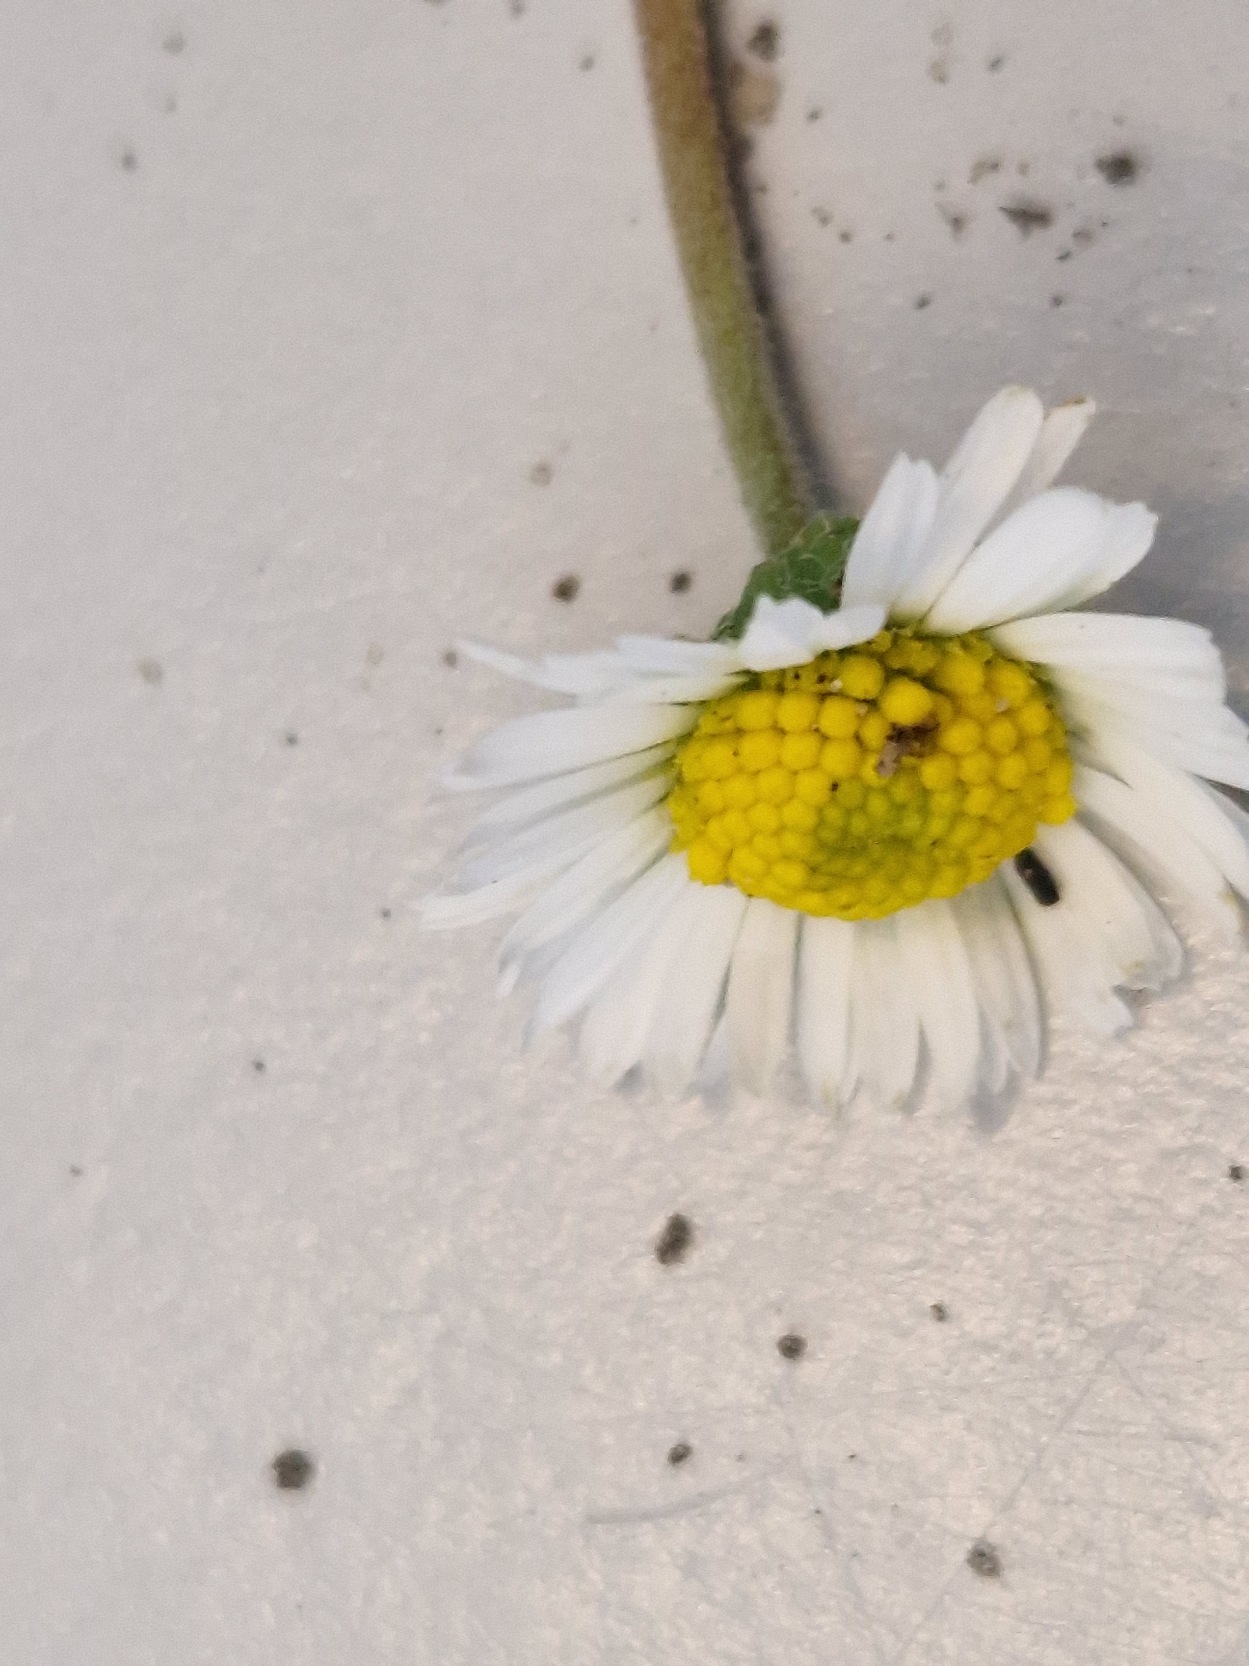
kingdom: Plantae
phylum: Tracheophyta
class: Magnoliopsida
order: Asterales
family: Asteraceae
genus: Bellis
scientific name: Bellis perennis
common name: Tusindfryd
